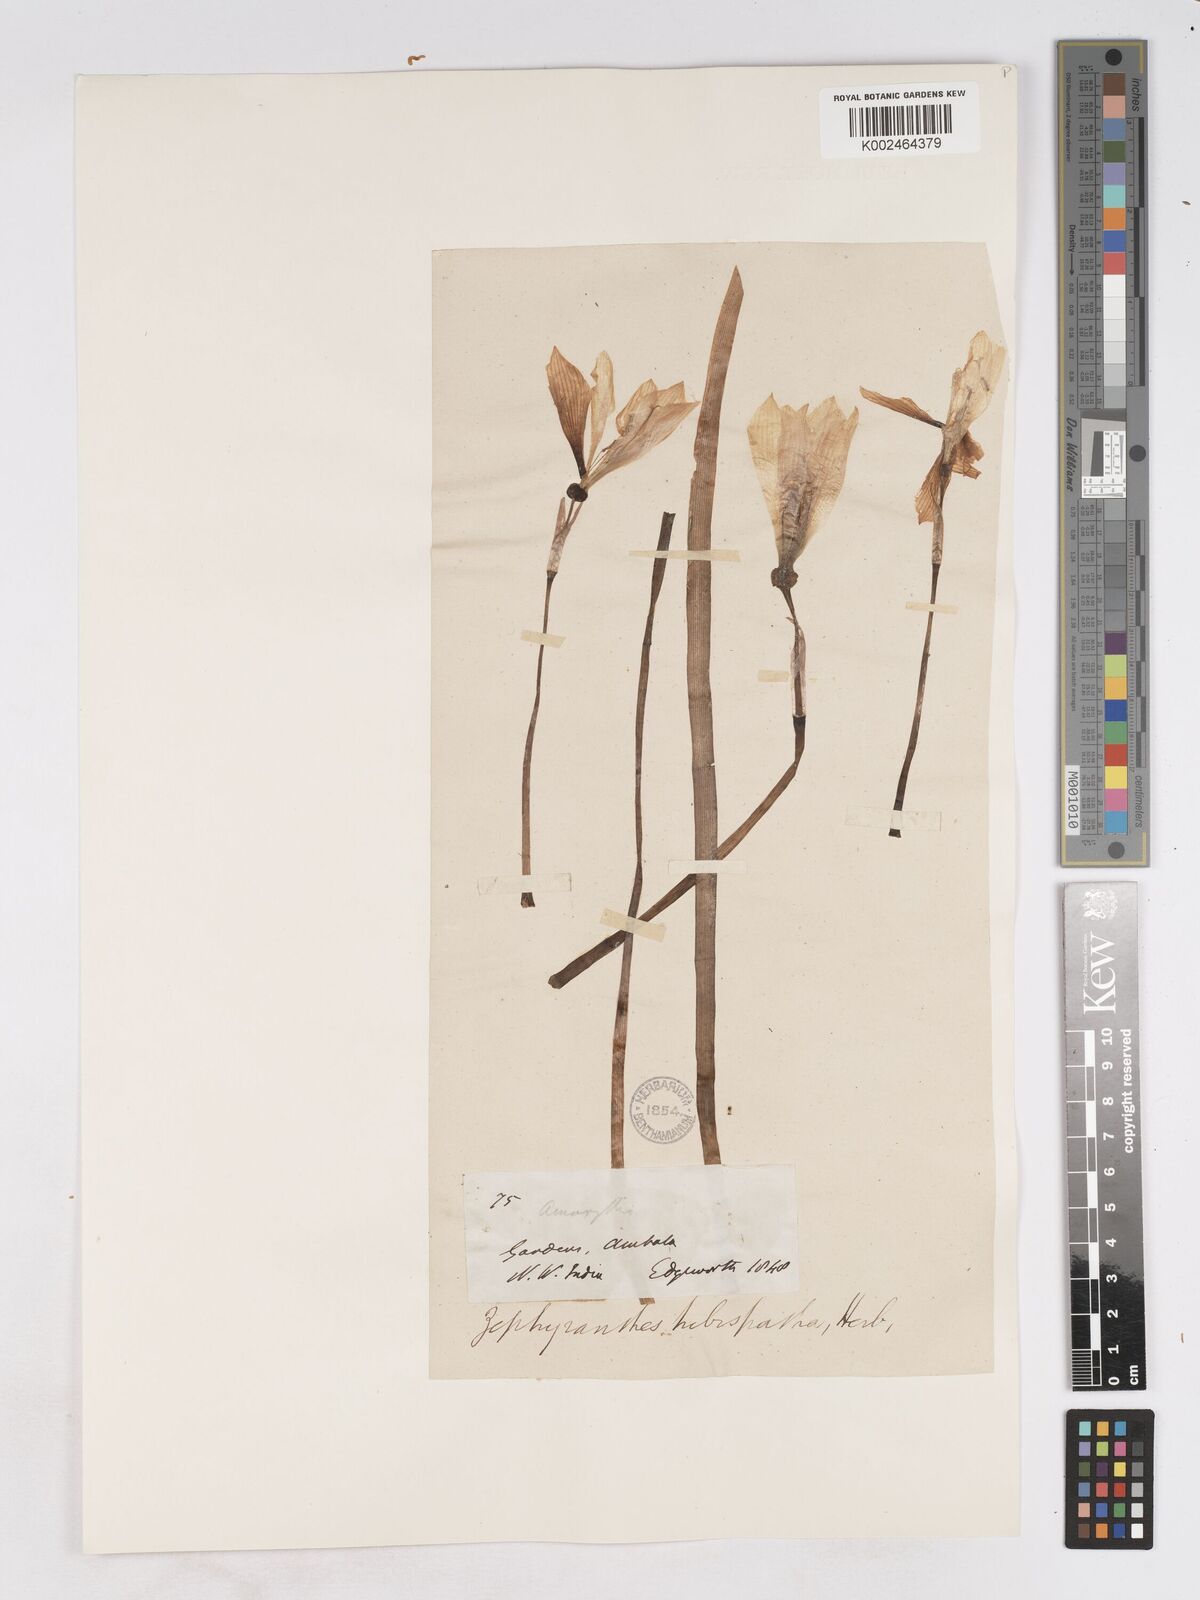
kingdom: Plantae
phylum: Tracheophyta
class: Liliopsida
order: Asparagales
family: Amaryllidaceae
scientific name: Amaryllidaceae
